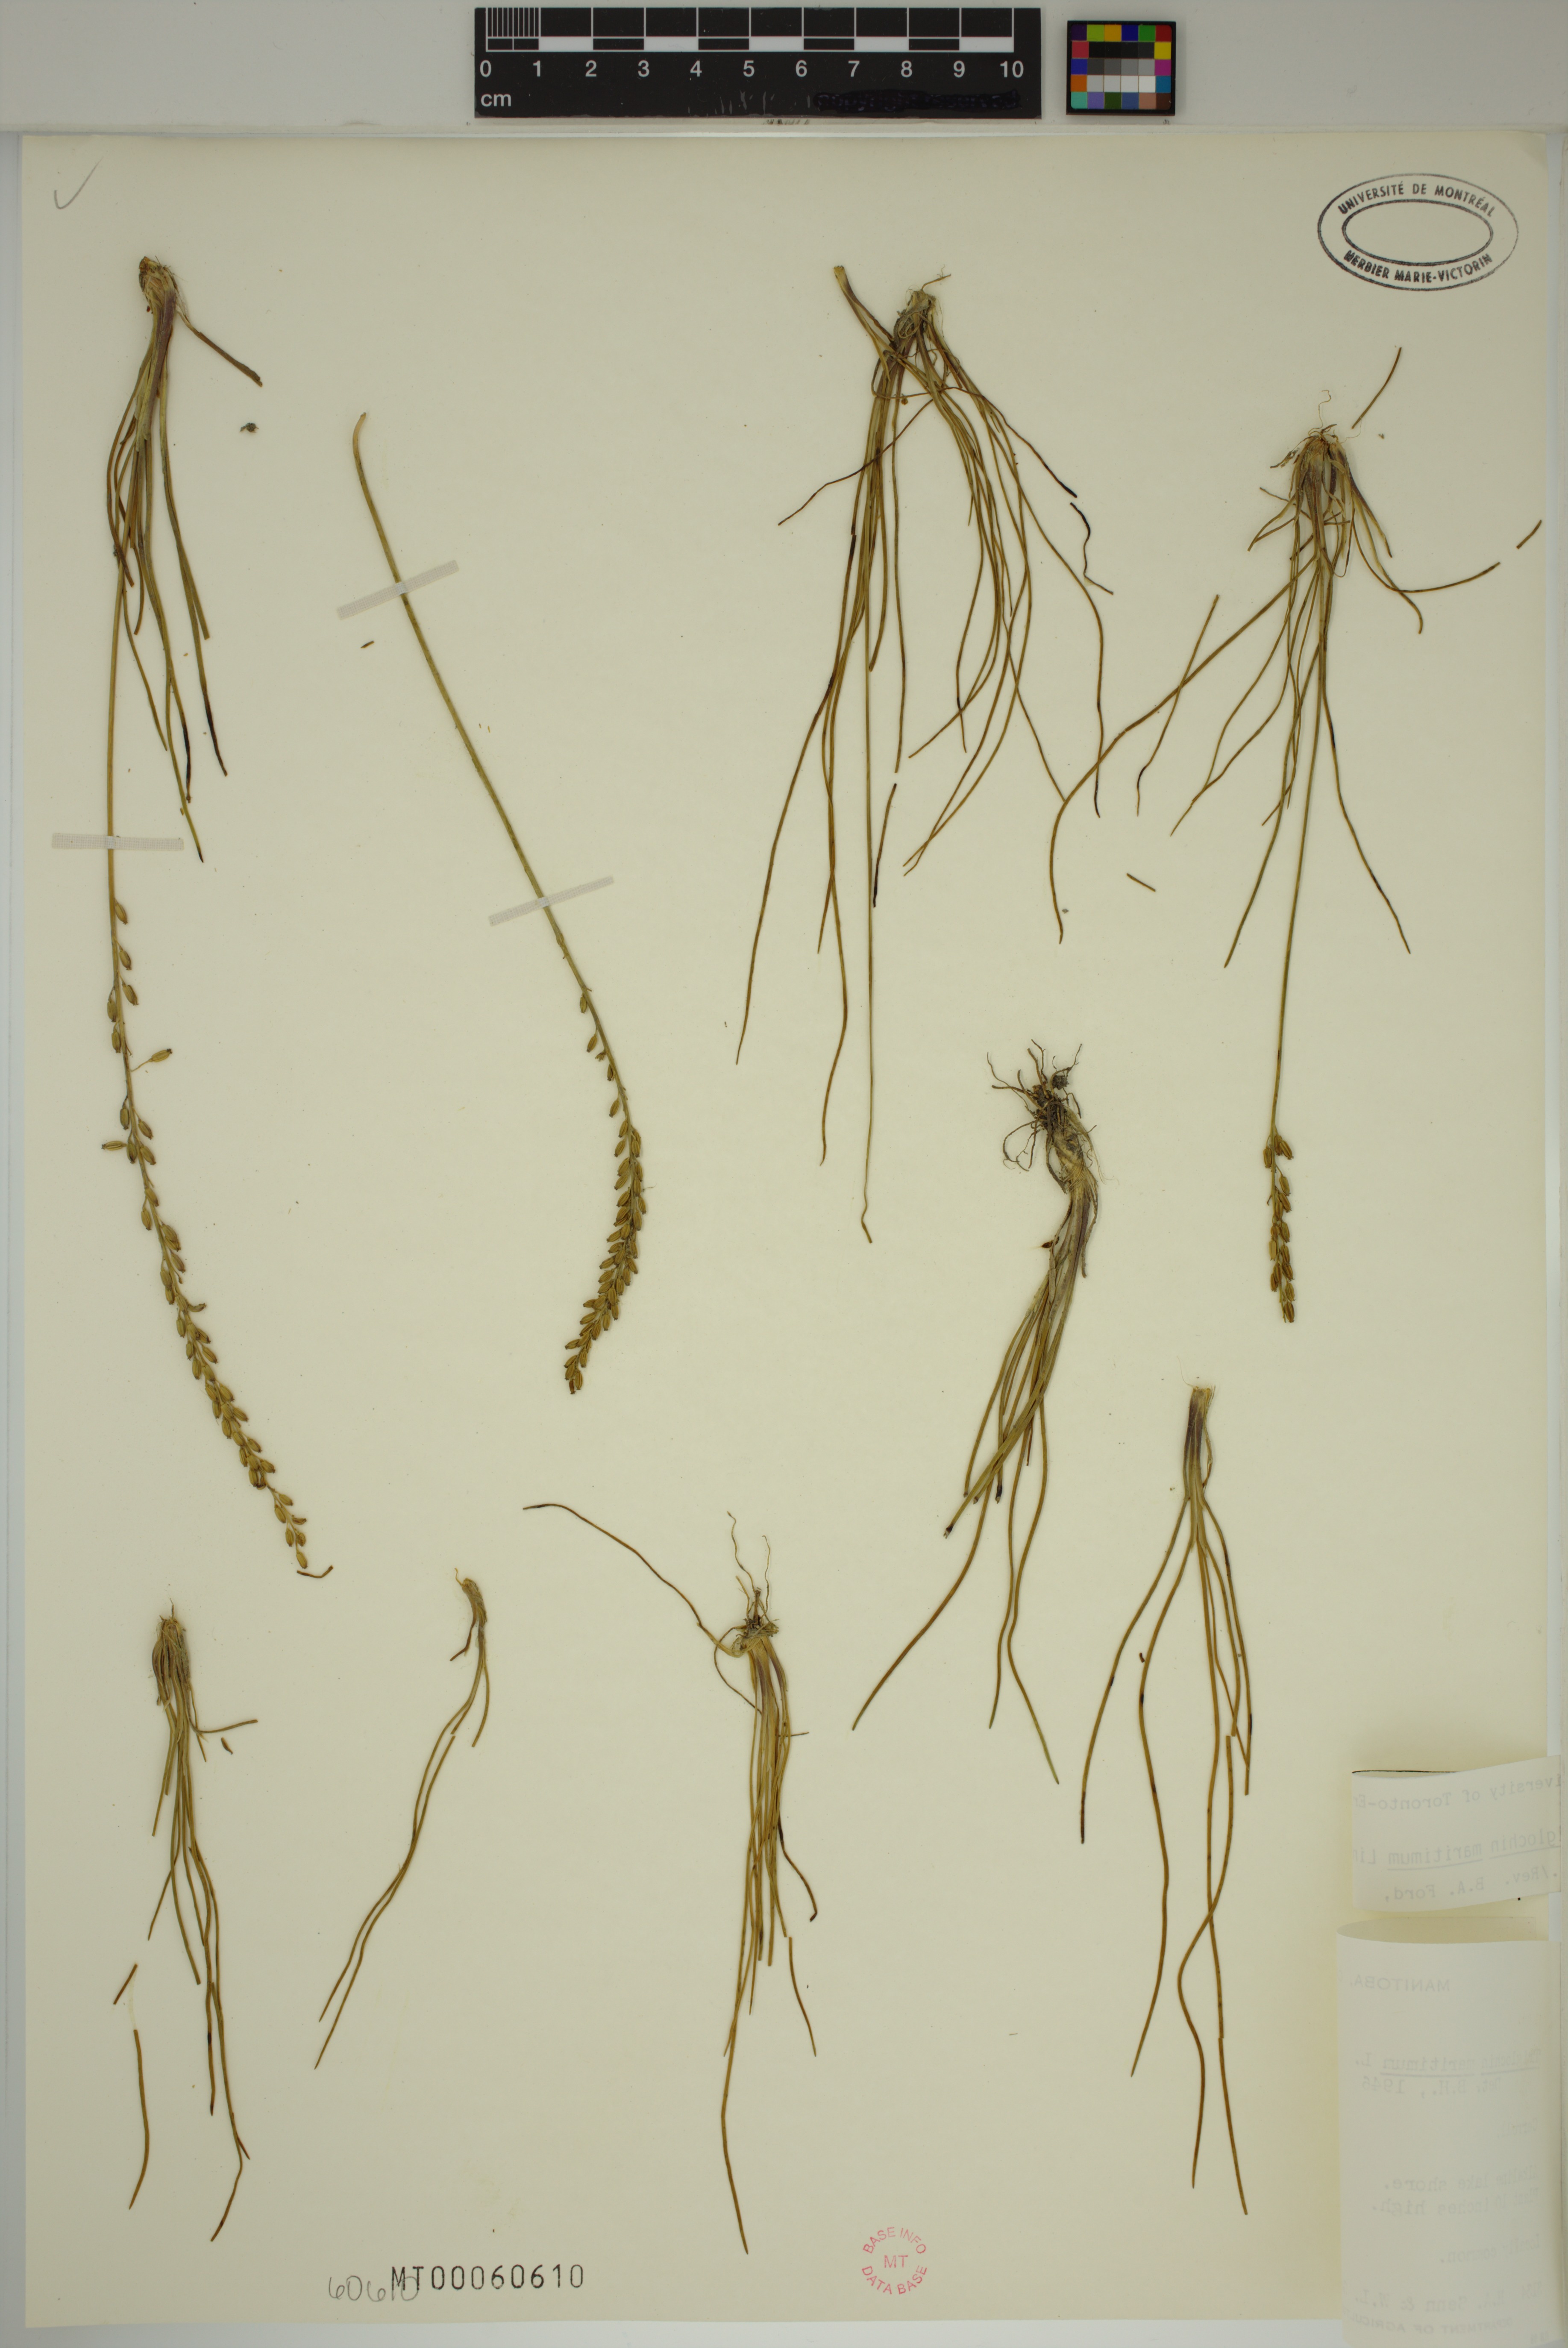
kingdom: Plantae
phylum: Tracheophyta
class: Liliopsida
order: Alismatales
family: Juncaginaceae
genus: Triglochin
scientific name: Triglochin maritima
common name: Sea arrowgrass
